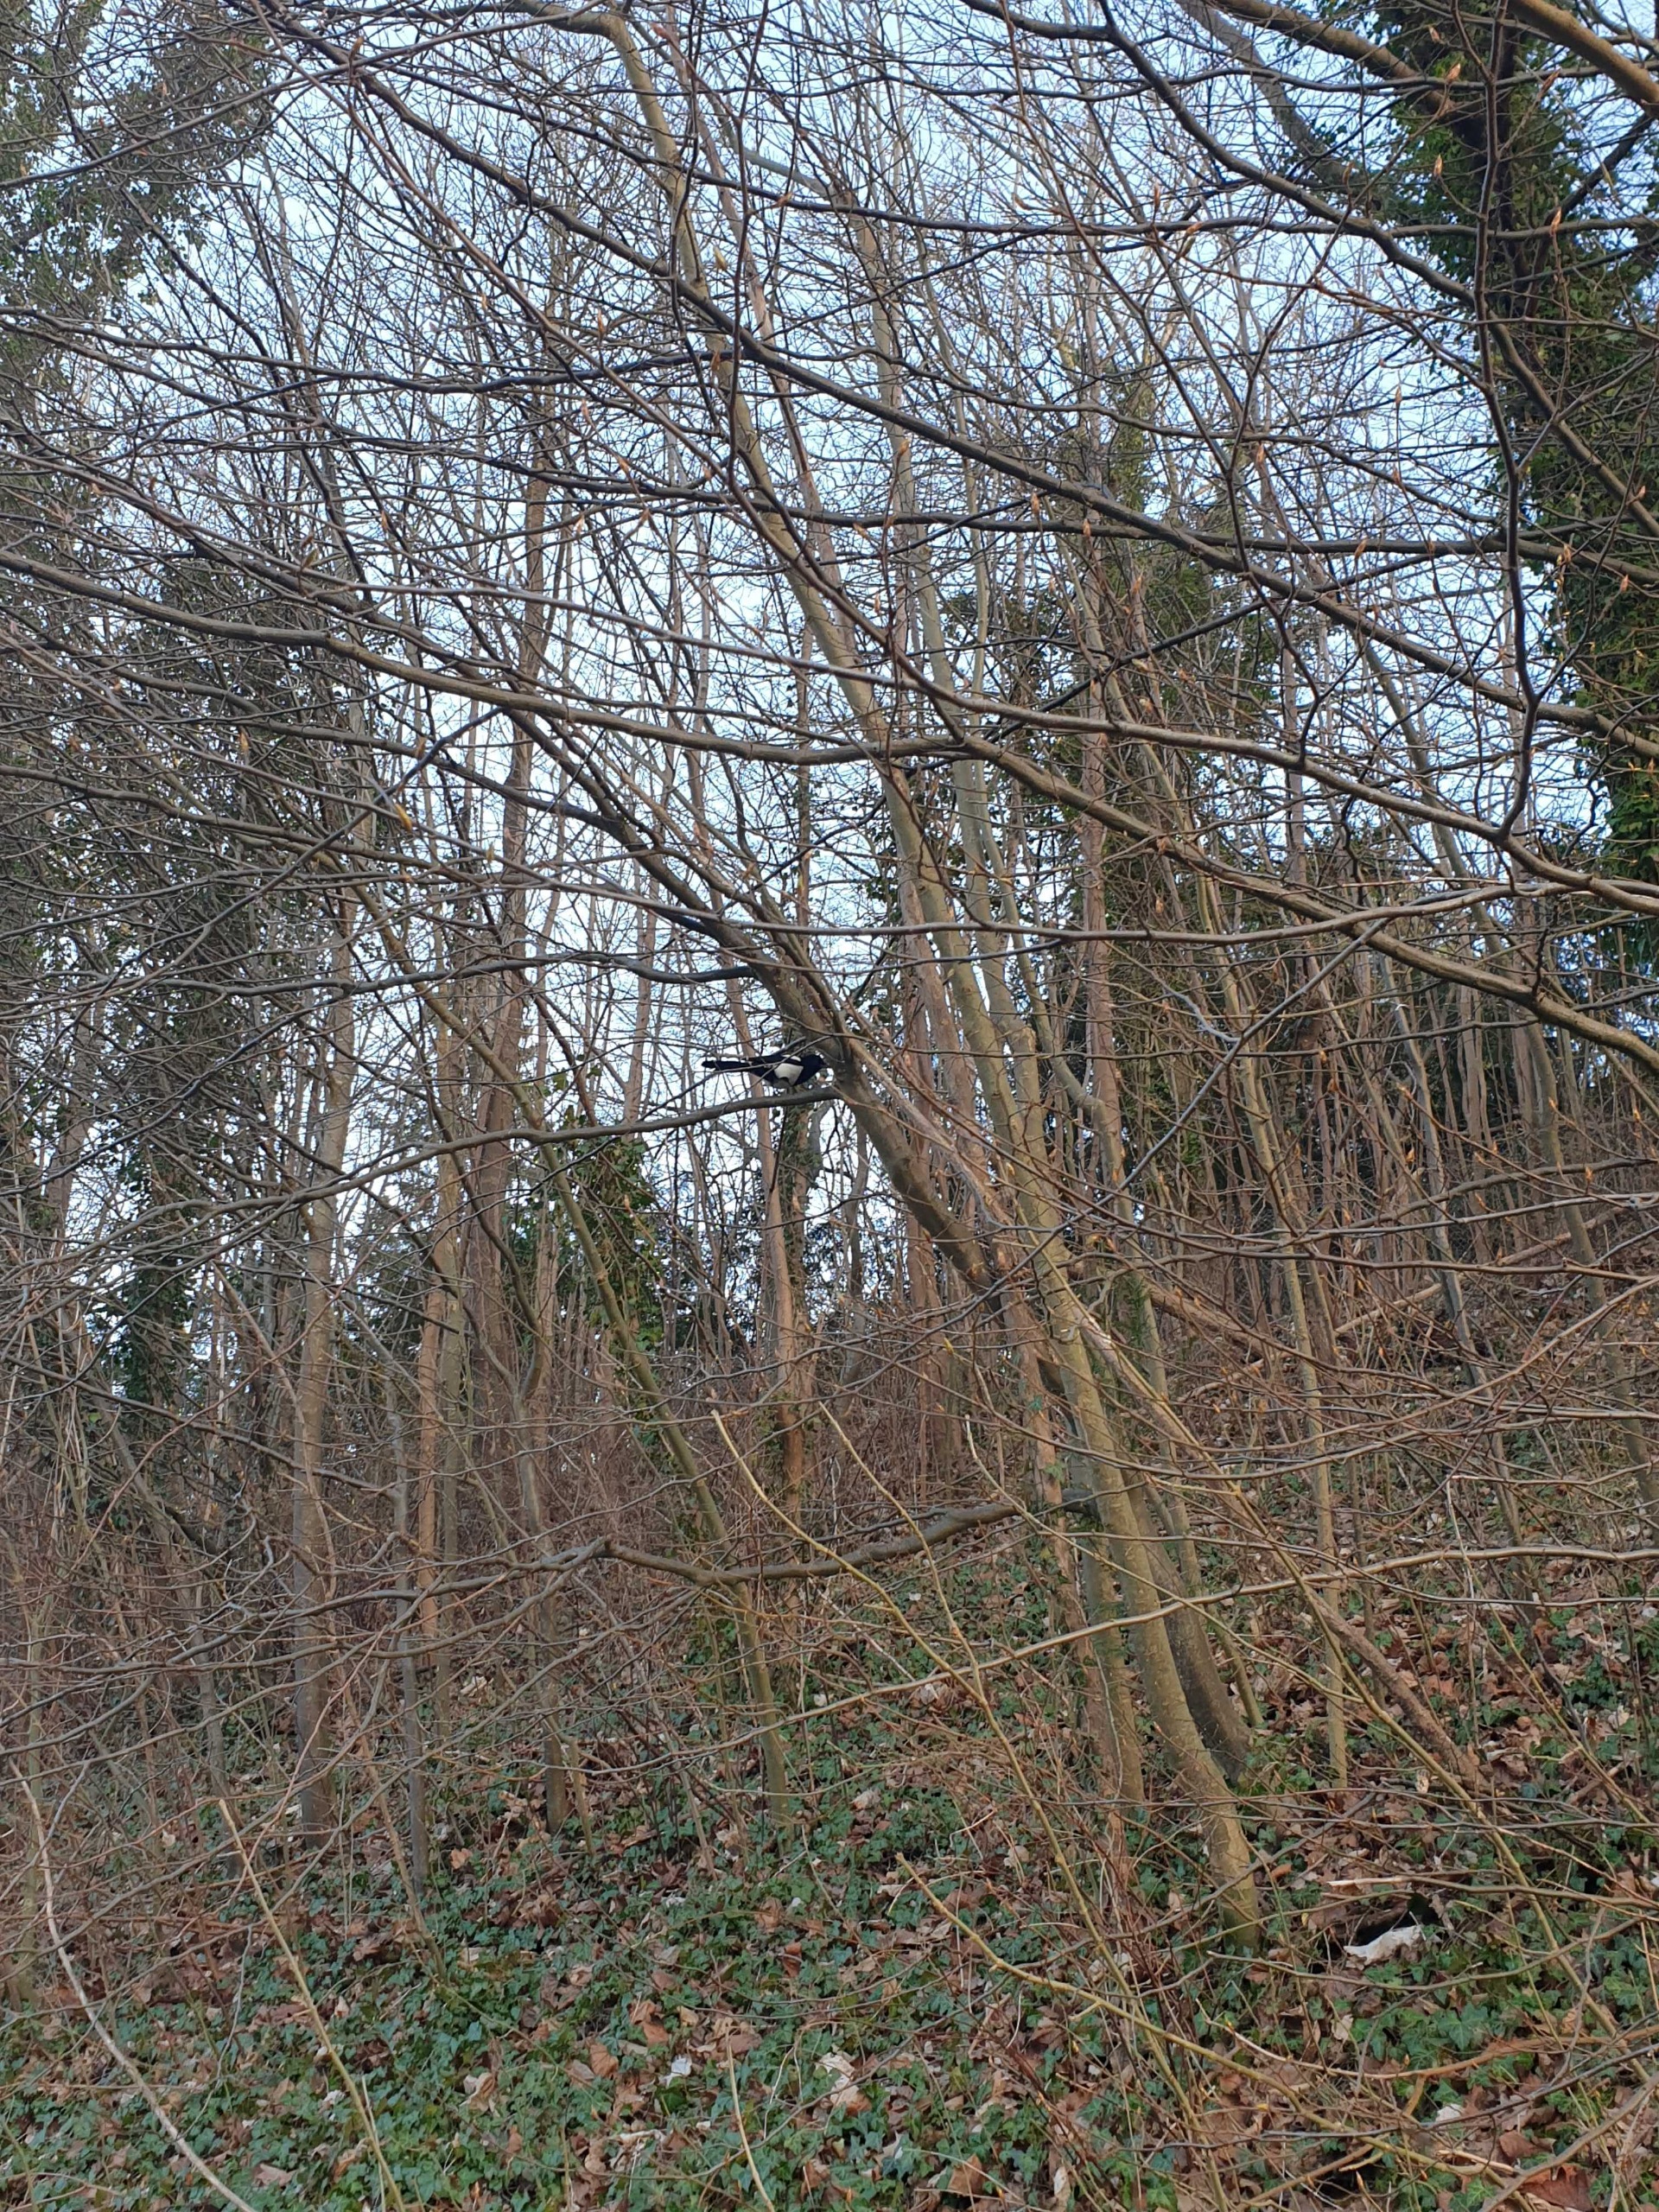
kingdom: Animalia
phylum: Chordata
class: Aves
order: Passeriformes
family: Corvidae
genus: Pica
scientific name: Pica pica
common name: Husskade
